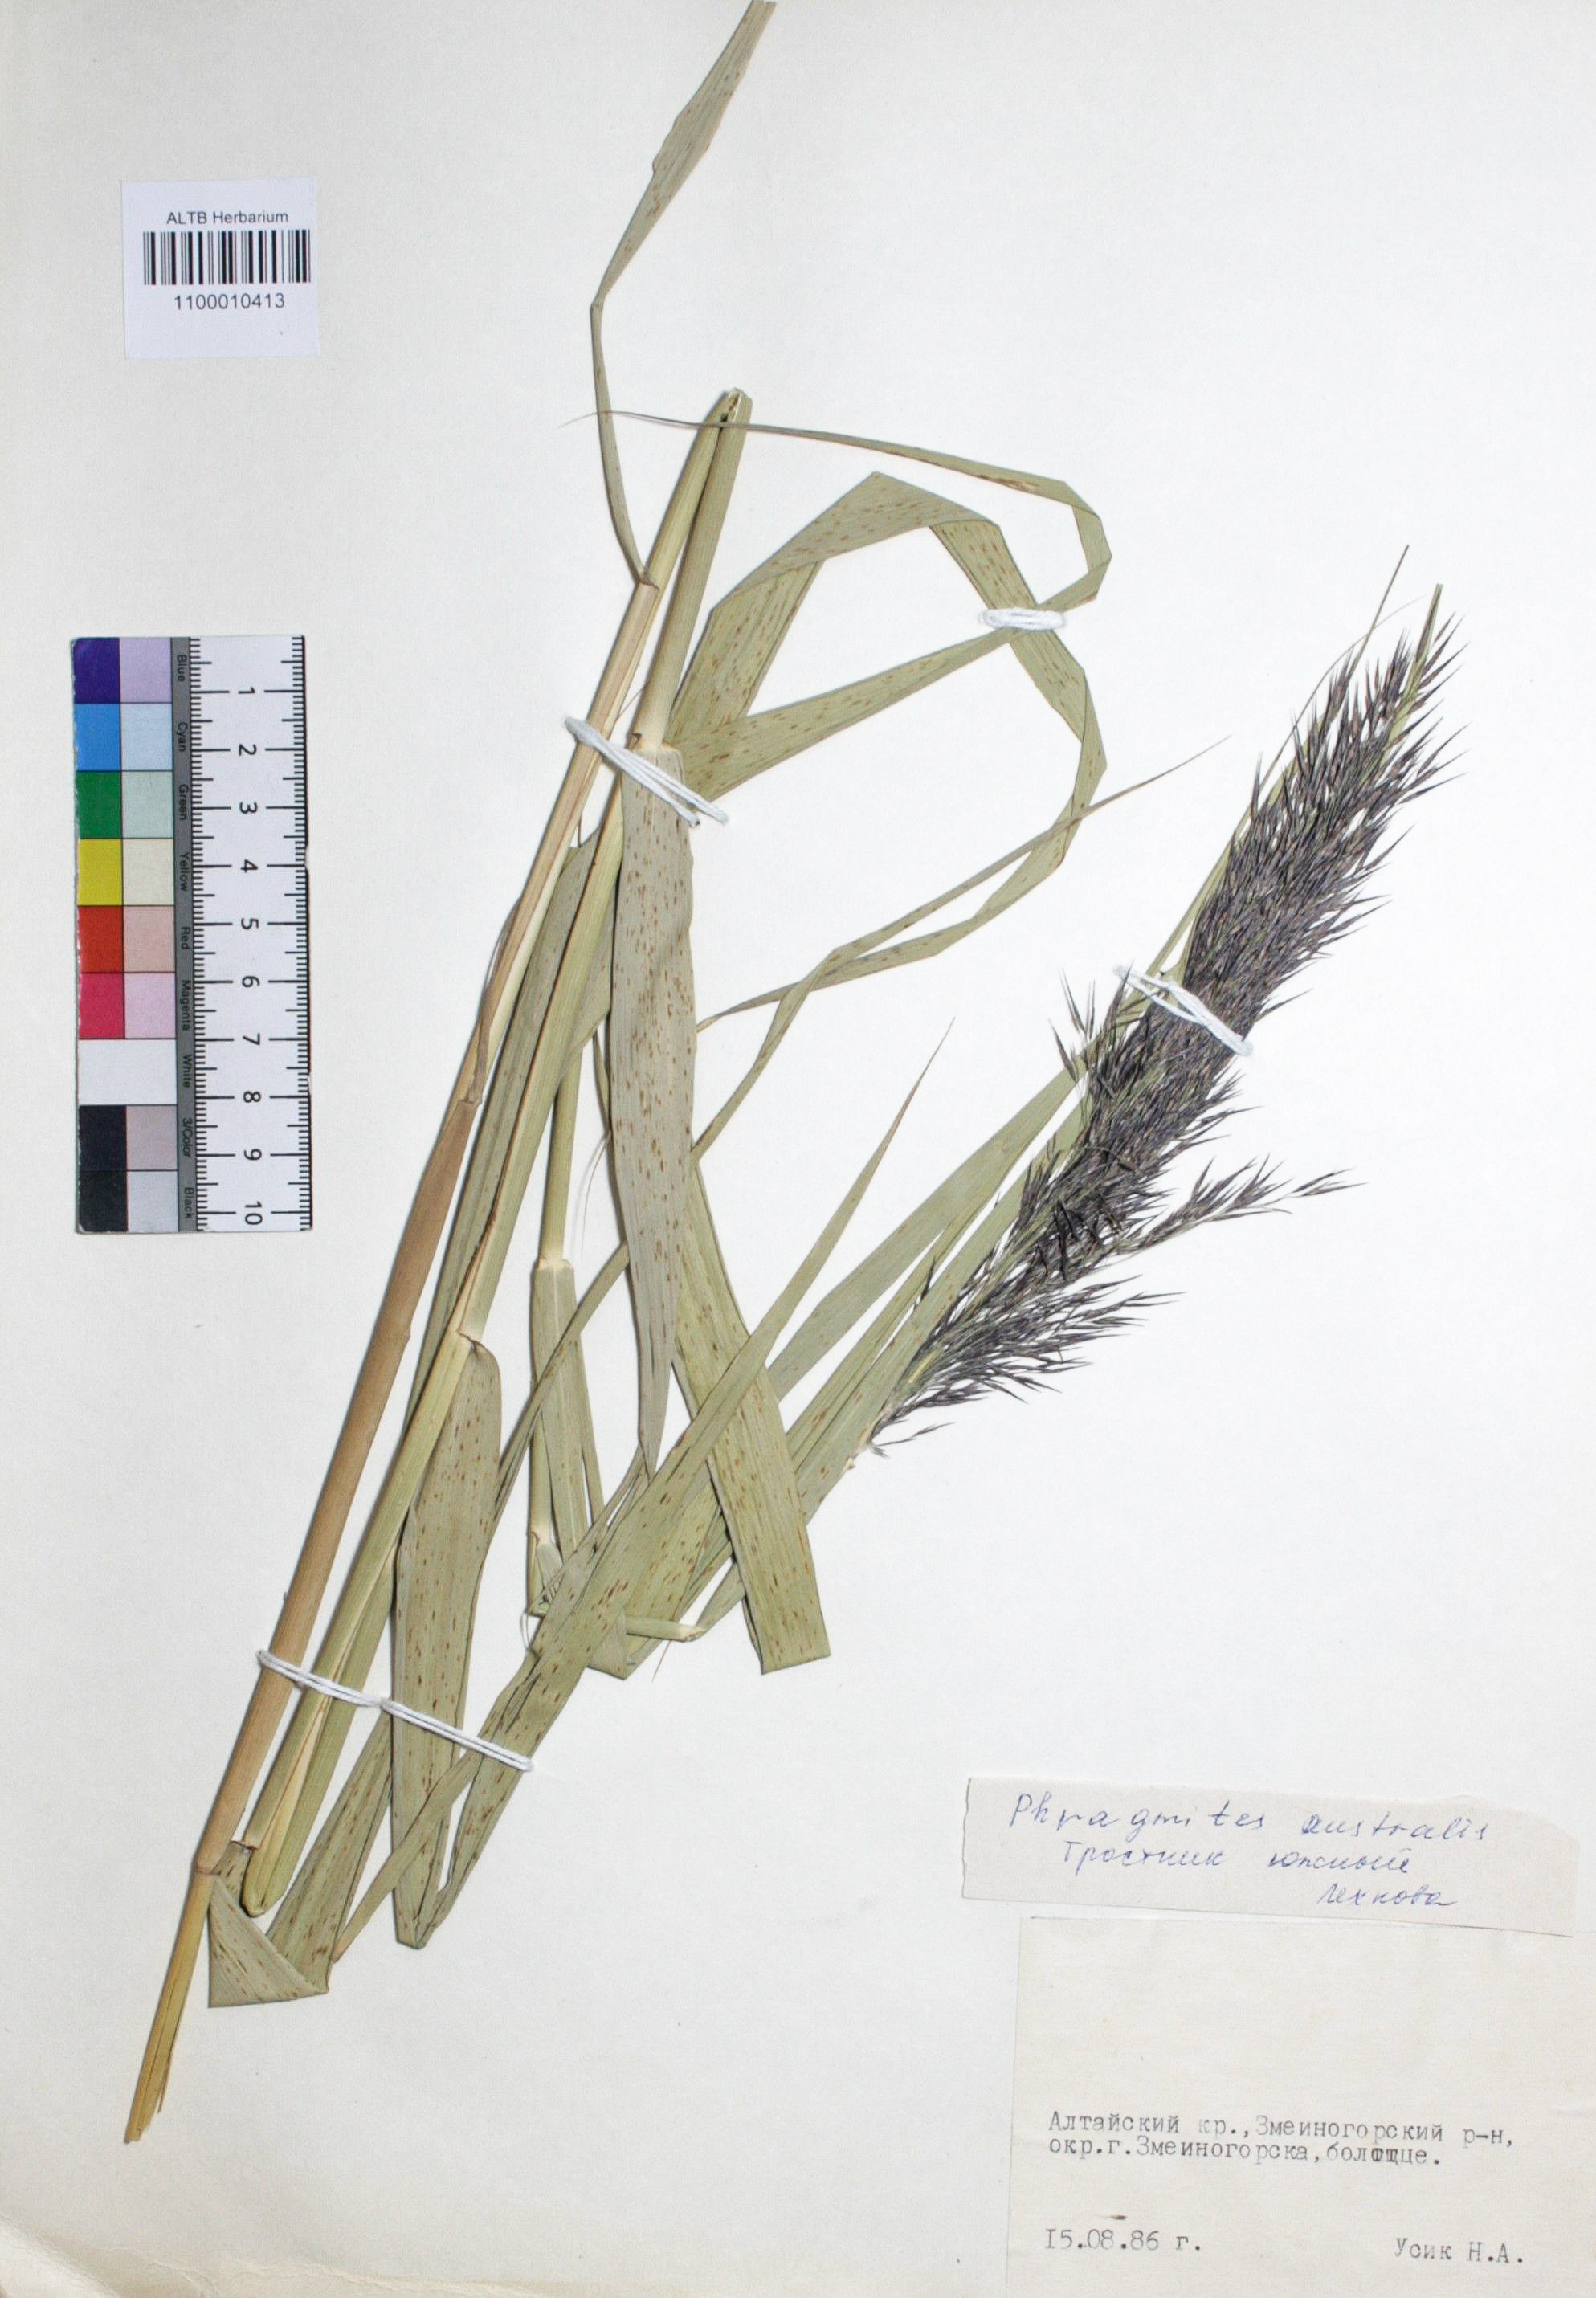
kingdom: Plantae
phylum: Tracheophyta
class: Liliopsida
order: Poales
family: Poaceae
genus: Phragmites
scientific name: Phragmites australis
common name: Common reed
